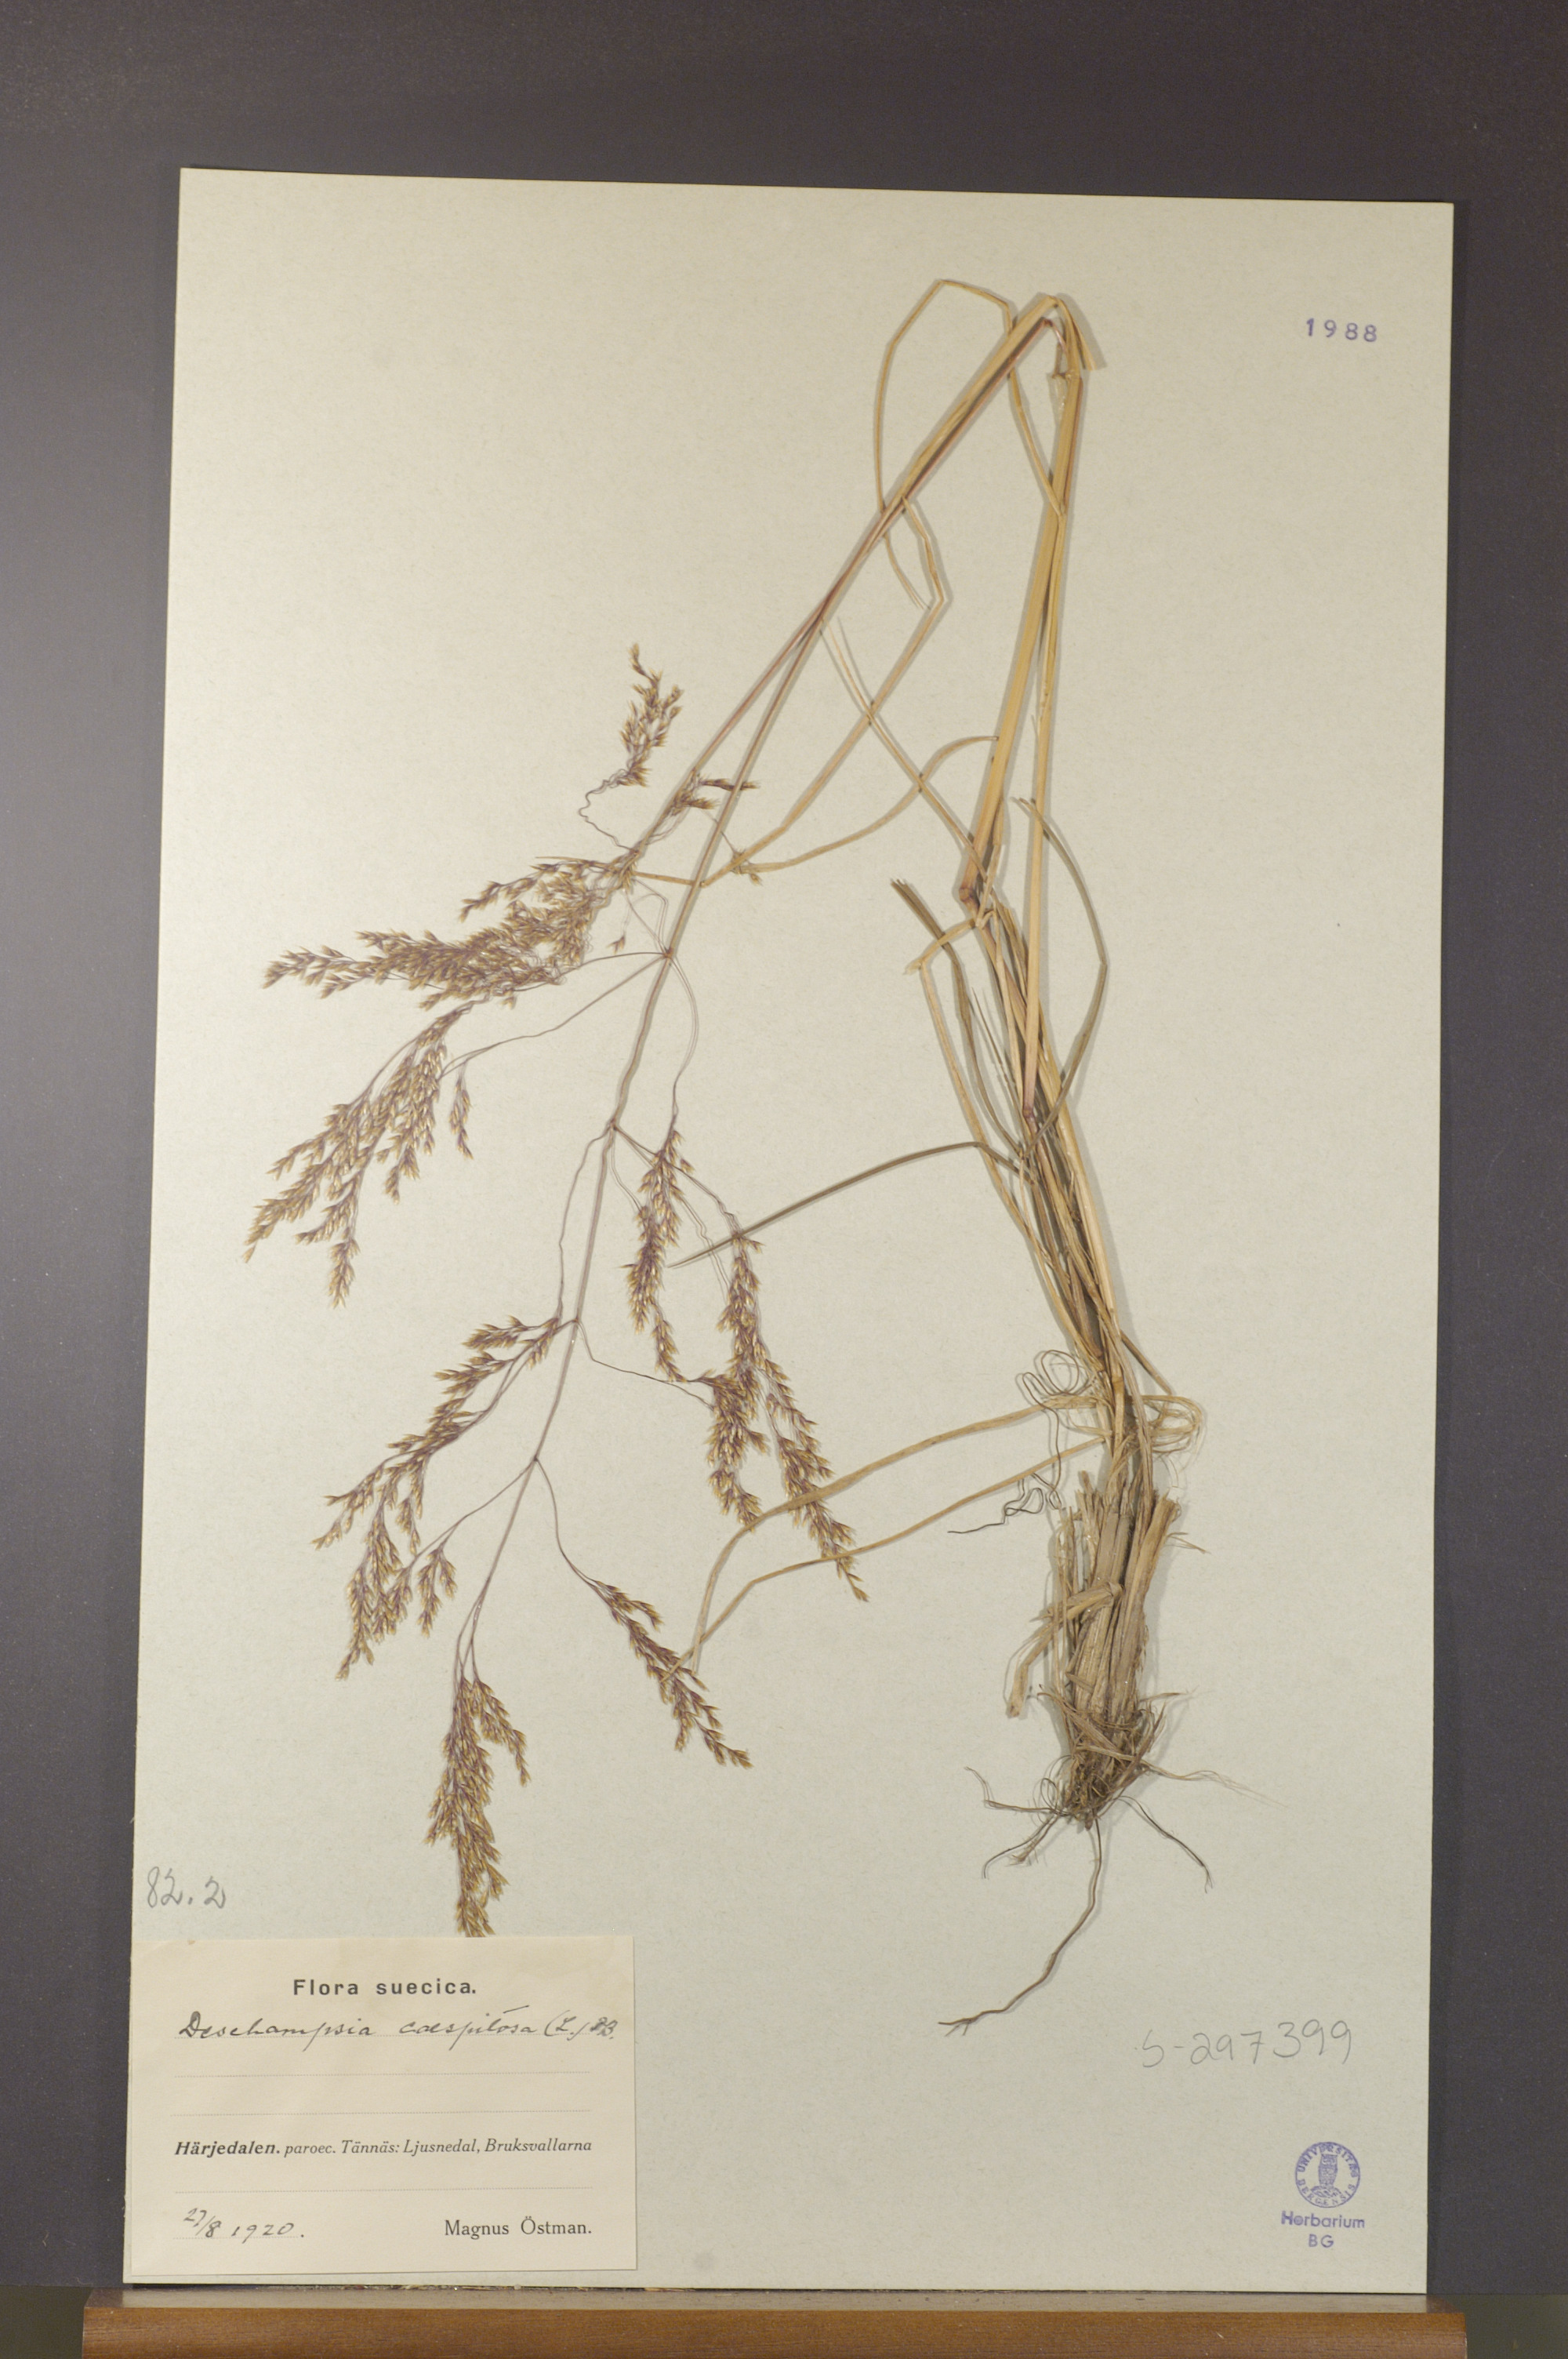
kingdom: Plantae
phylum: Tracheophyta
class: Liliopsida
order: Poales
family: Poaceae
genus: Deschampsia
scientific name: Deschampsia cespitosa
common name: Tufted hair-grass
